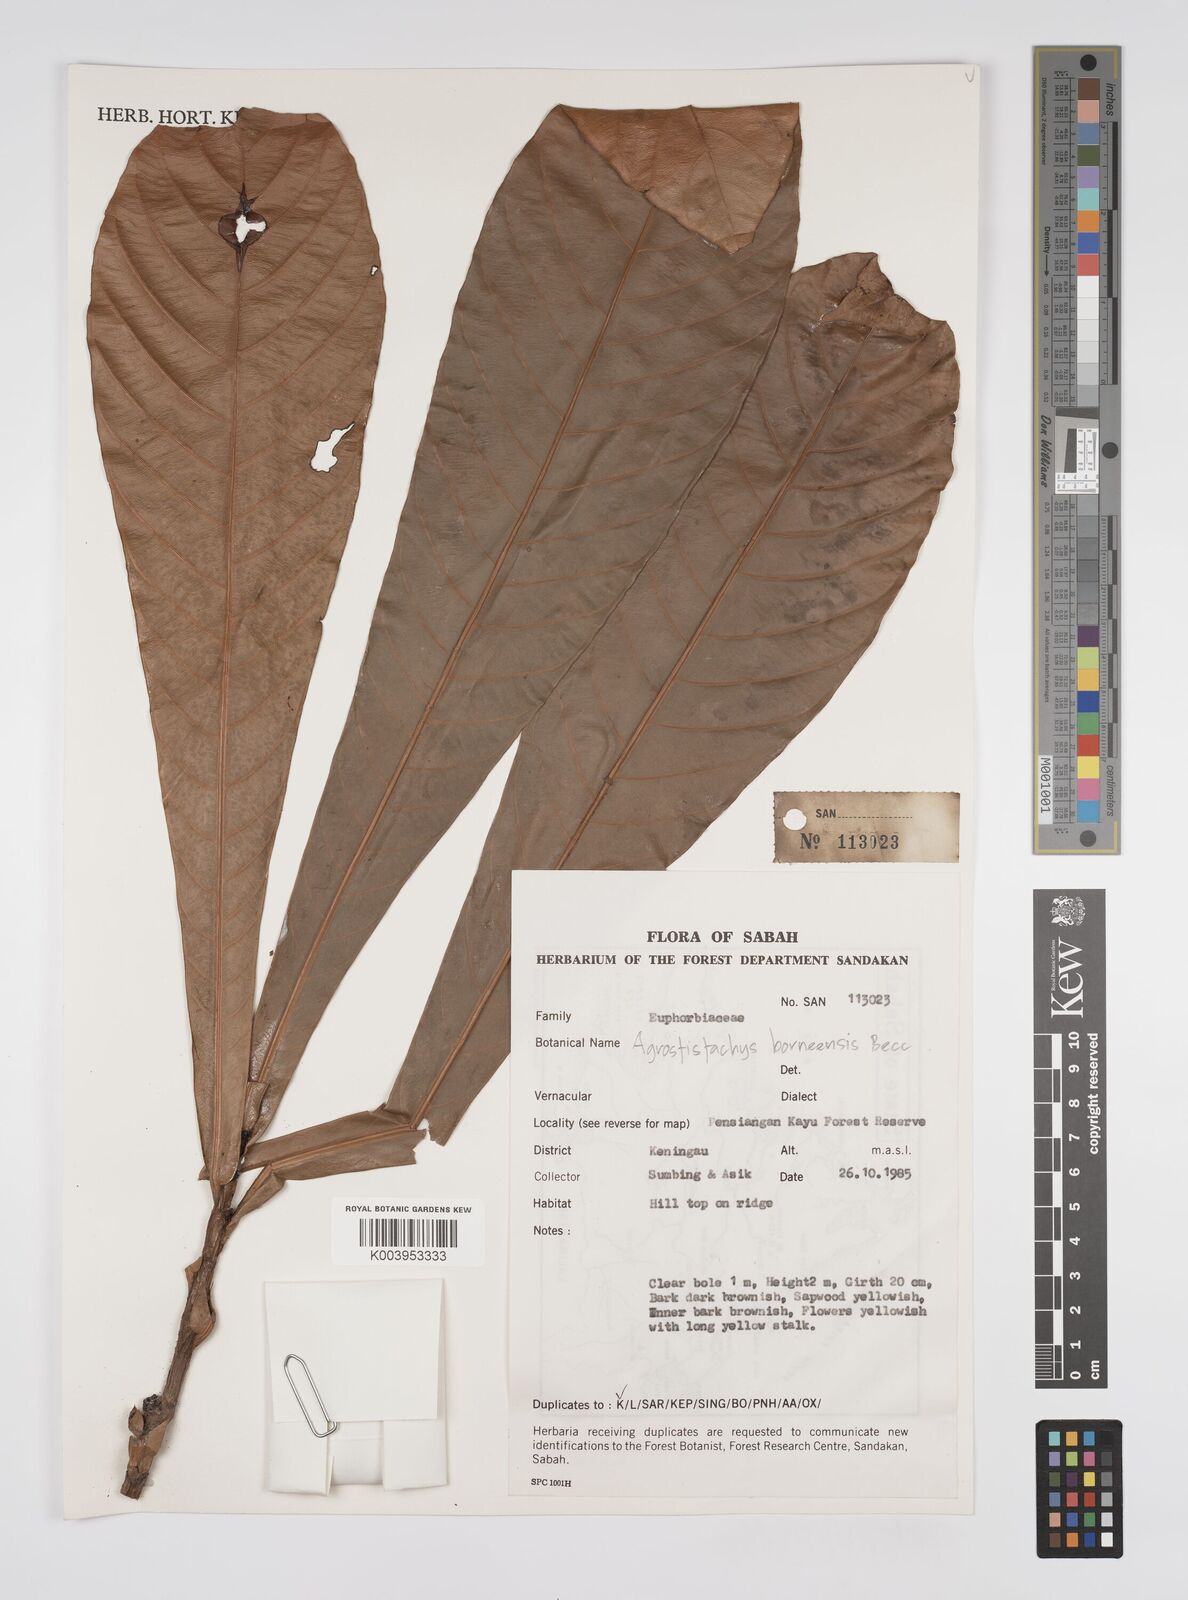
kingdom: Plantae
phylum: Tracheophyta
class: Magnoliopsida
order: Malpighiales
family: Euphorbiaceae
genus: Agrostistachys
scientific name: Agrostistachys borneensis
